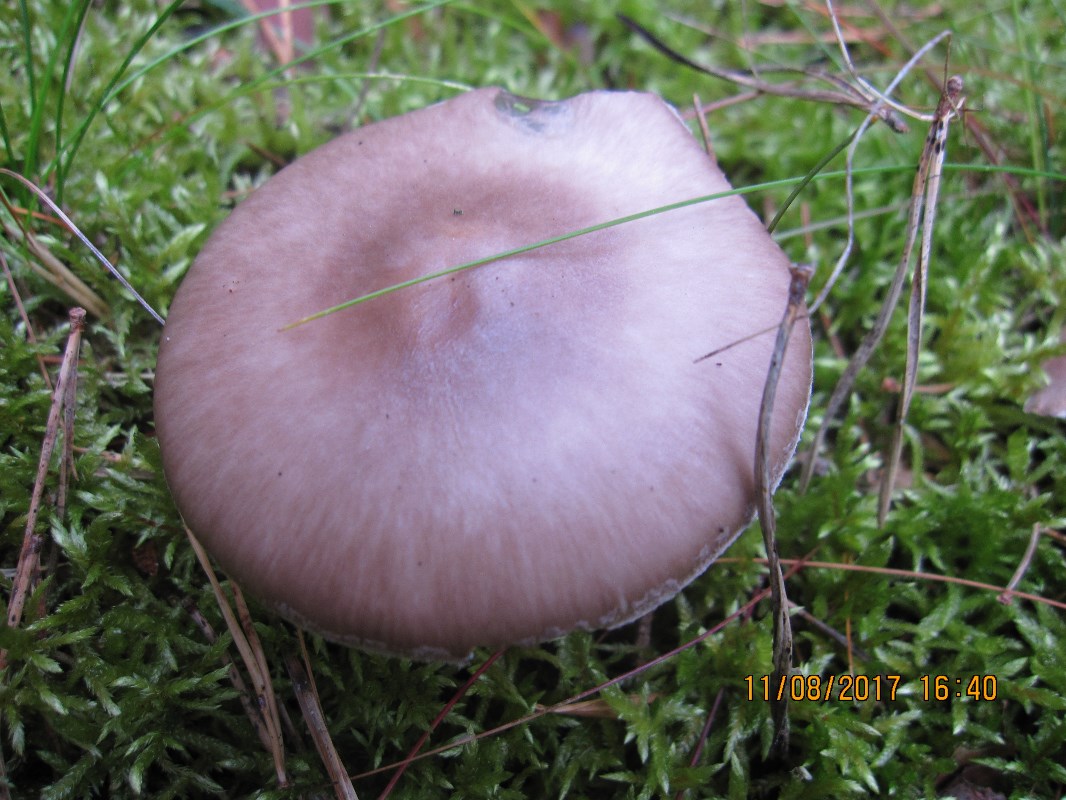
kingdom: Fungi
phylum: Basidiomycota
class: Agaricomycetes
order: Agaricales
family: Amanitaceae
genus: Amanita
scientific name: Amanita porphyria
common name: porfyr-fluesvamp
